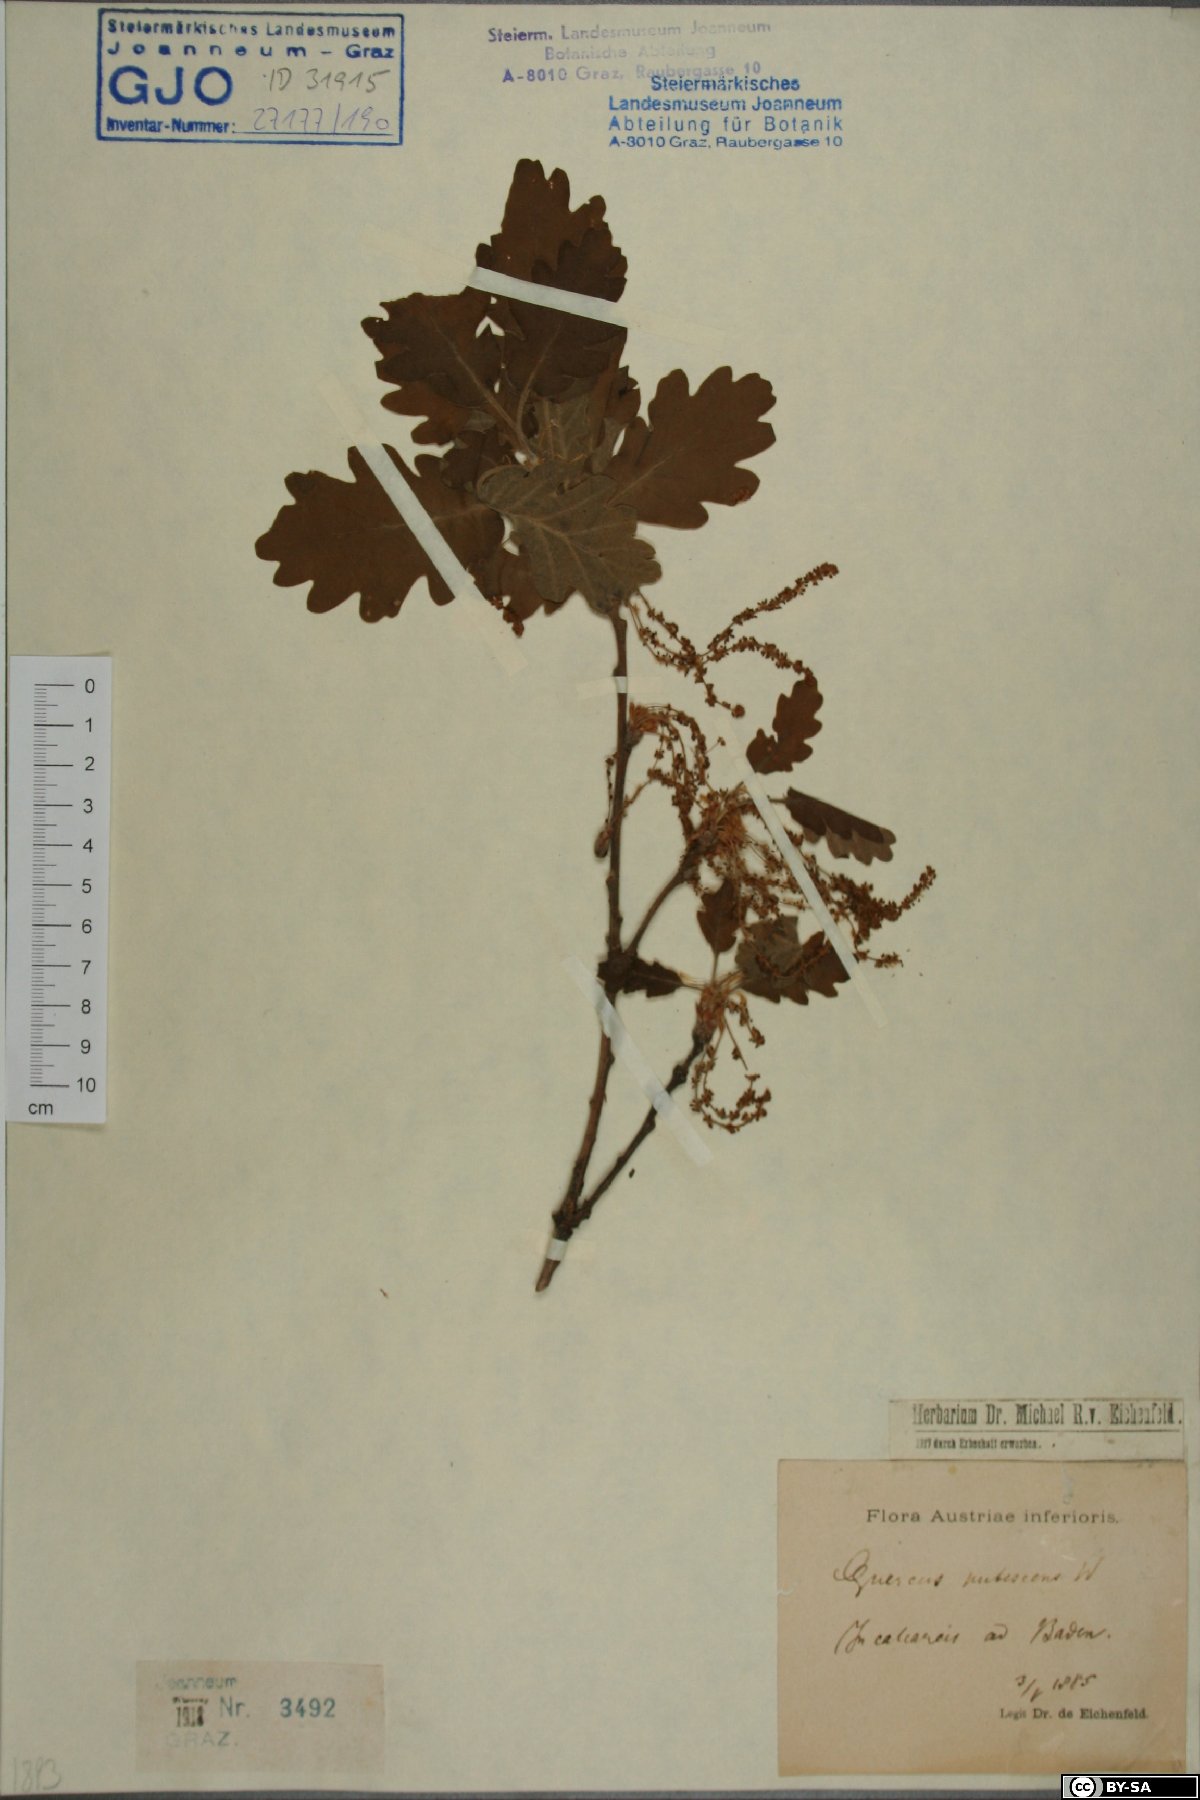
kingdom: Plantae
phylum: Tracheophyta
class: Magnoliopsida
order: Fagales
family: Fagaceae
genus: Quercus
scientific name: Quercus pubescens
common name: Downy oak
